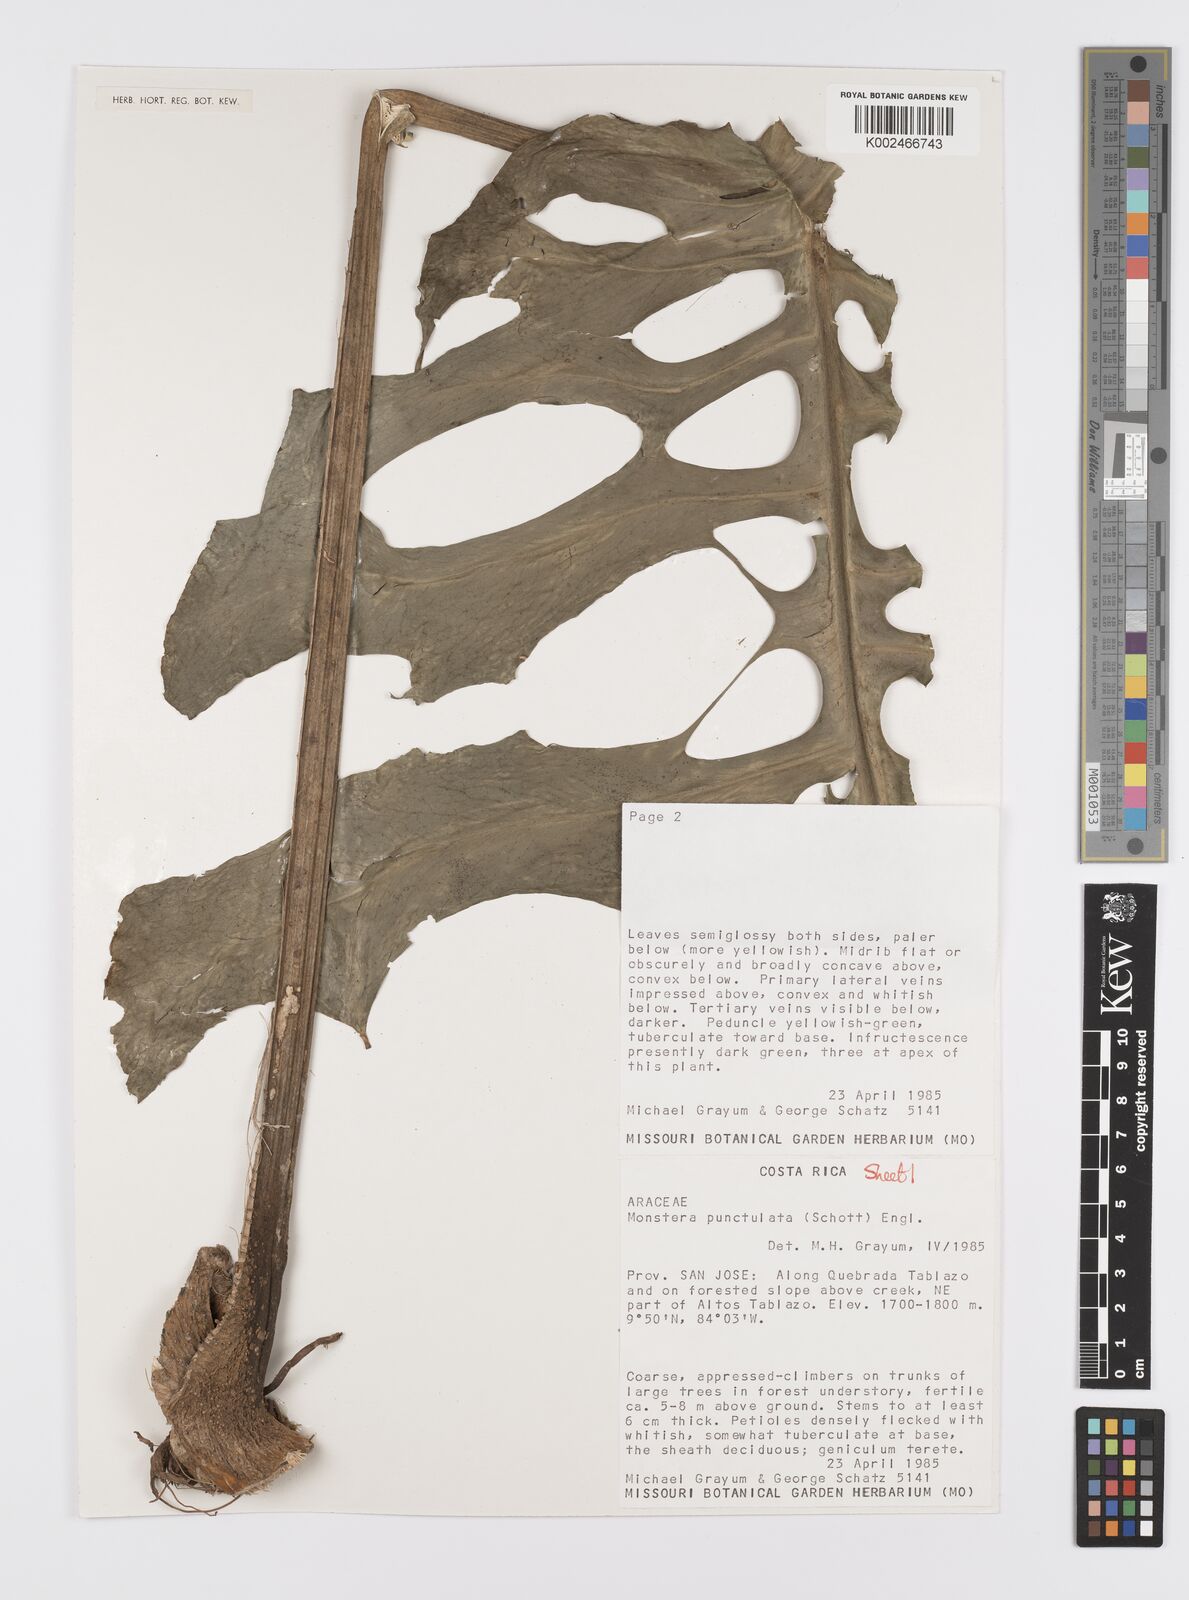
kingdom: Plantae
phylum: Tracheophyta
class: Liliopsida
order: Alismatales
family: Araceae
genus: Monstera
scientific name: Monstera punctulata
